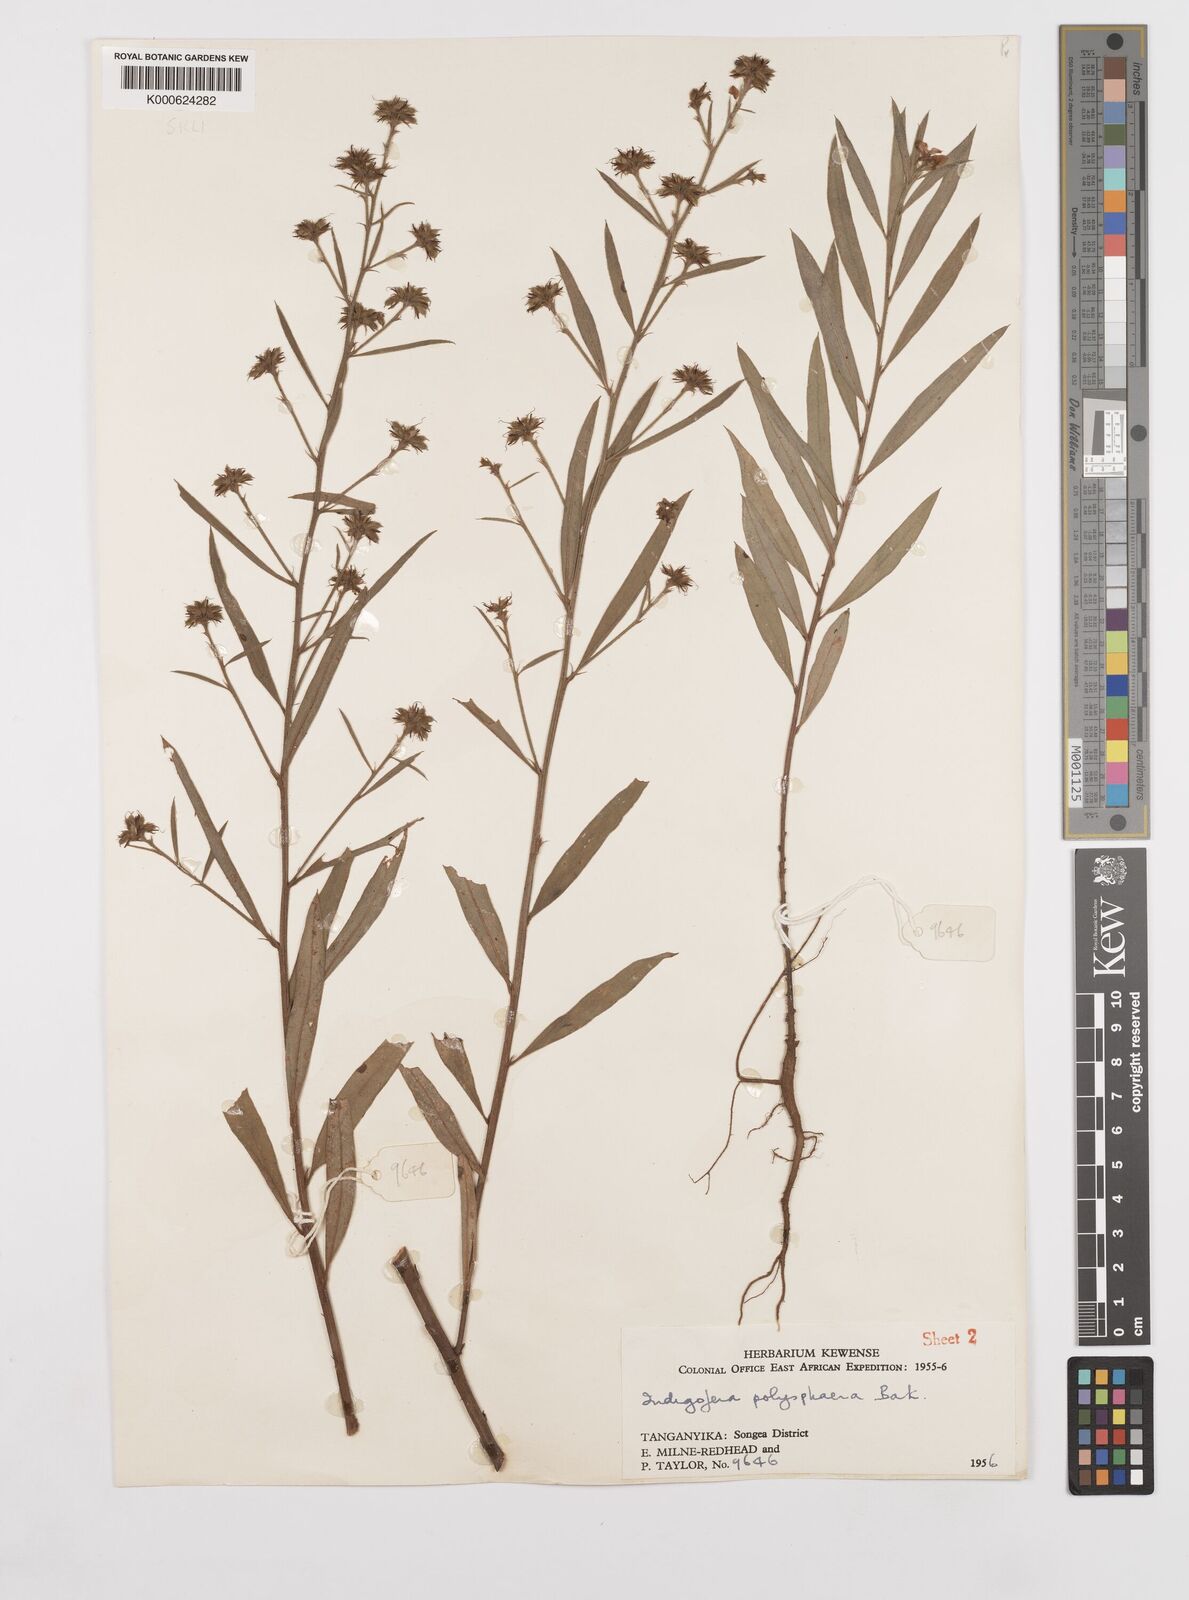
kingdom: Plantae
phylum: Tracheophyta
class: Magnoliopsida
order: Fabales
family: Fabaceae
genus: Indigofera
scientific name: Indigofera polysphaera
